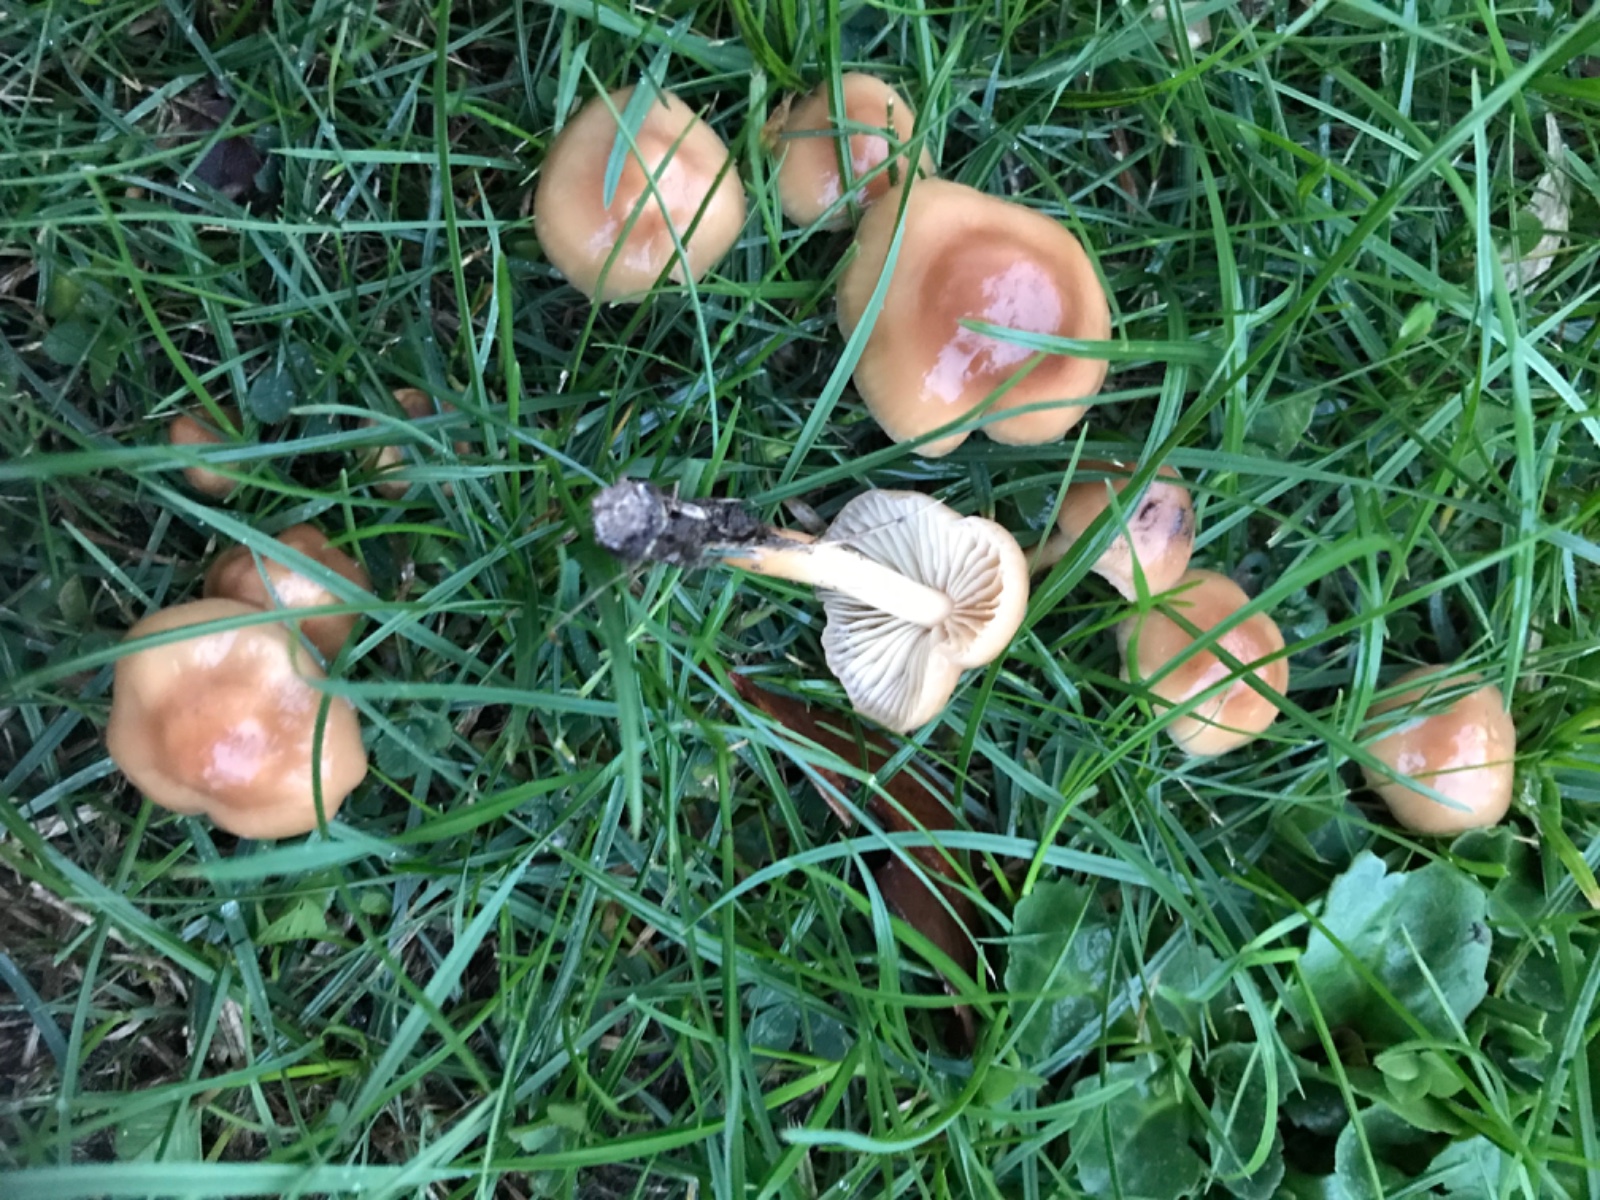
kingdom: Fungi
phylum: Basidiomycota
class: Agaricomycetes
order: Agaricales
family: Marasmiaceae
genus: Marasmius
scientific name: Marasmius oreades
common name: elledans-bruskhat
